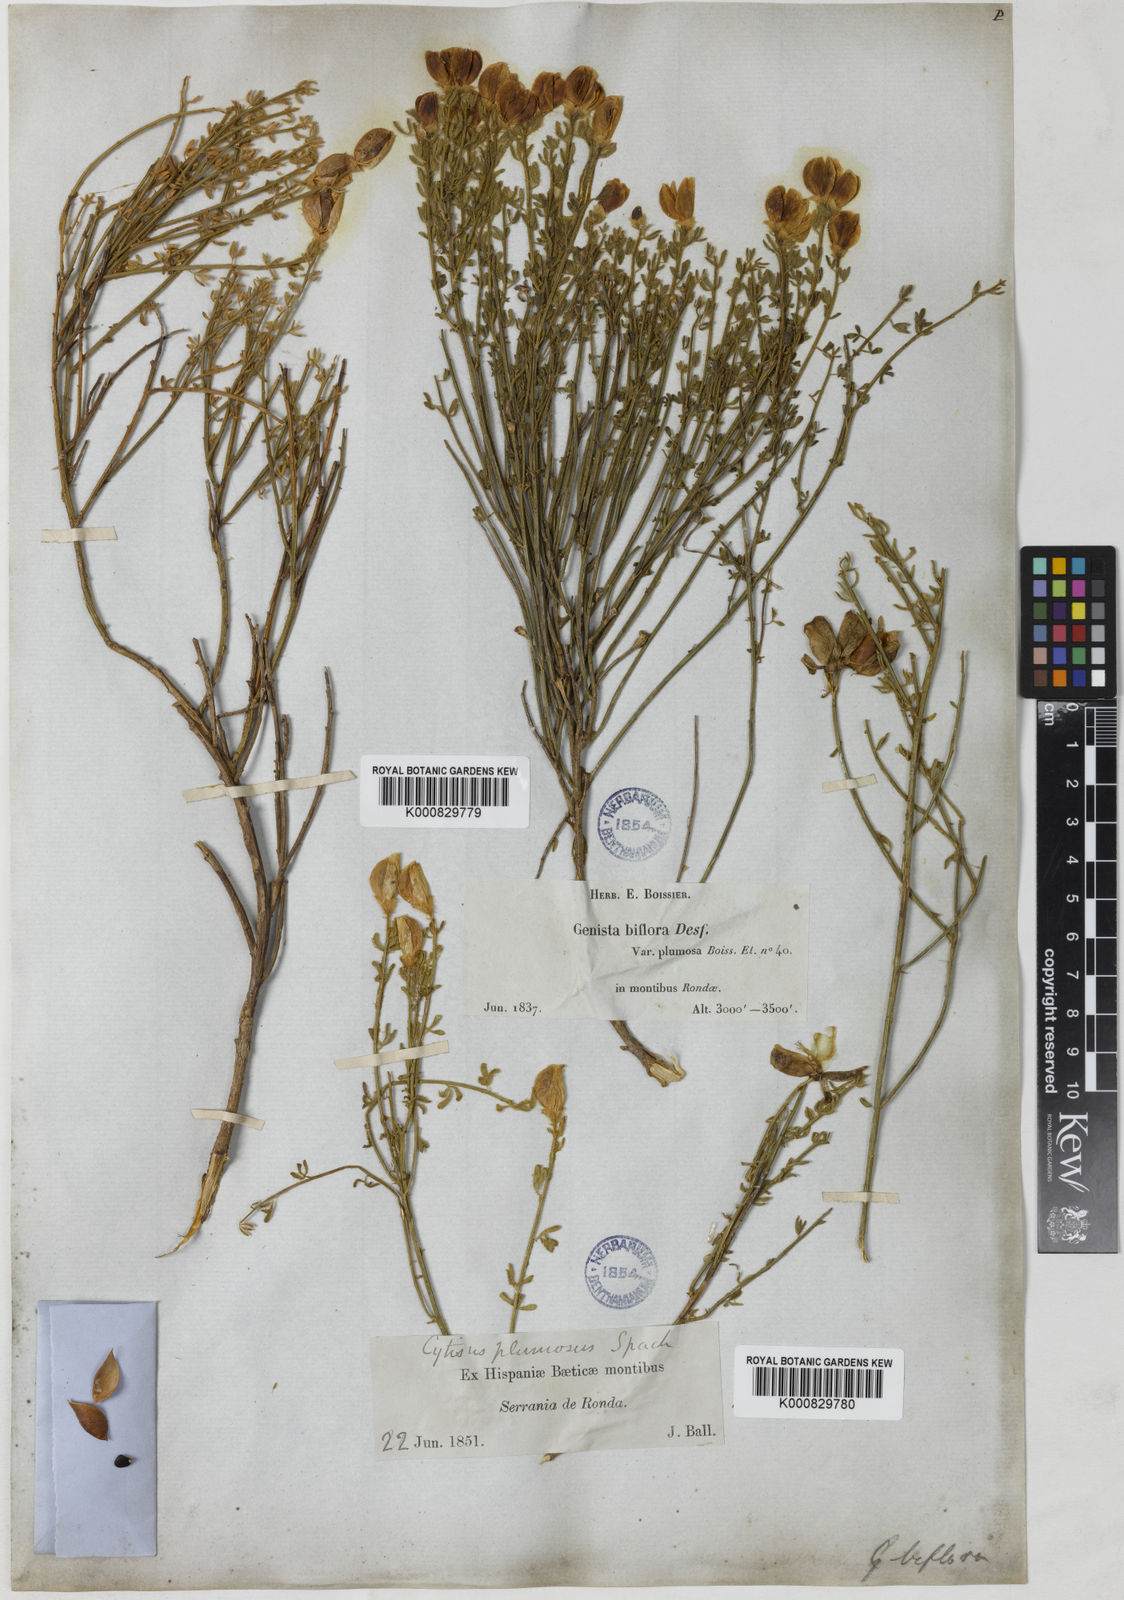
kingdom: Plantae
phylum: Tracheophyta
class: Magnoliopsida
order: Fabales
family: Fabaceae
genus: Cytisus
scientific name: Cytisus fontanesii
